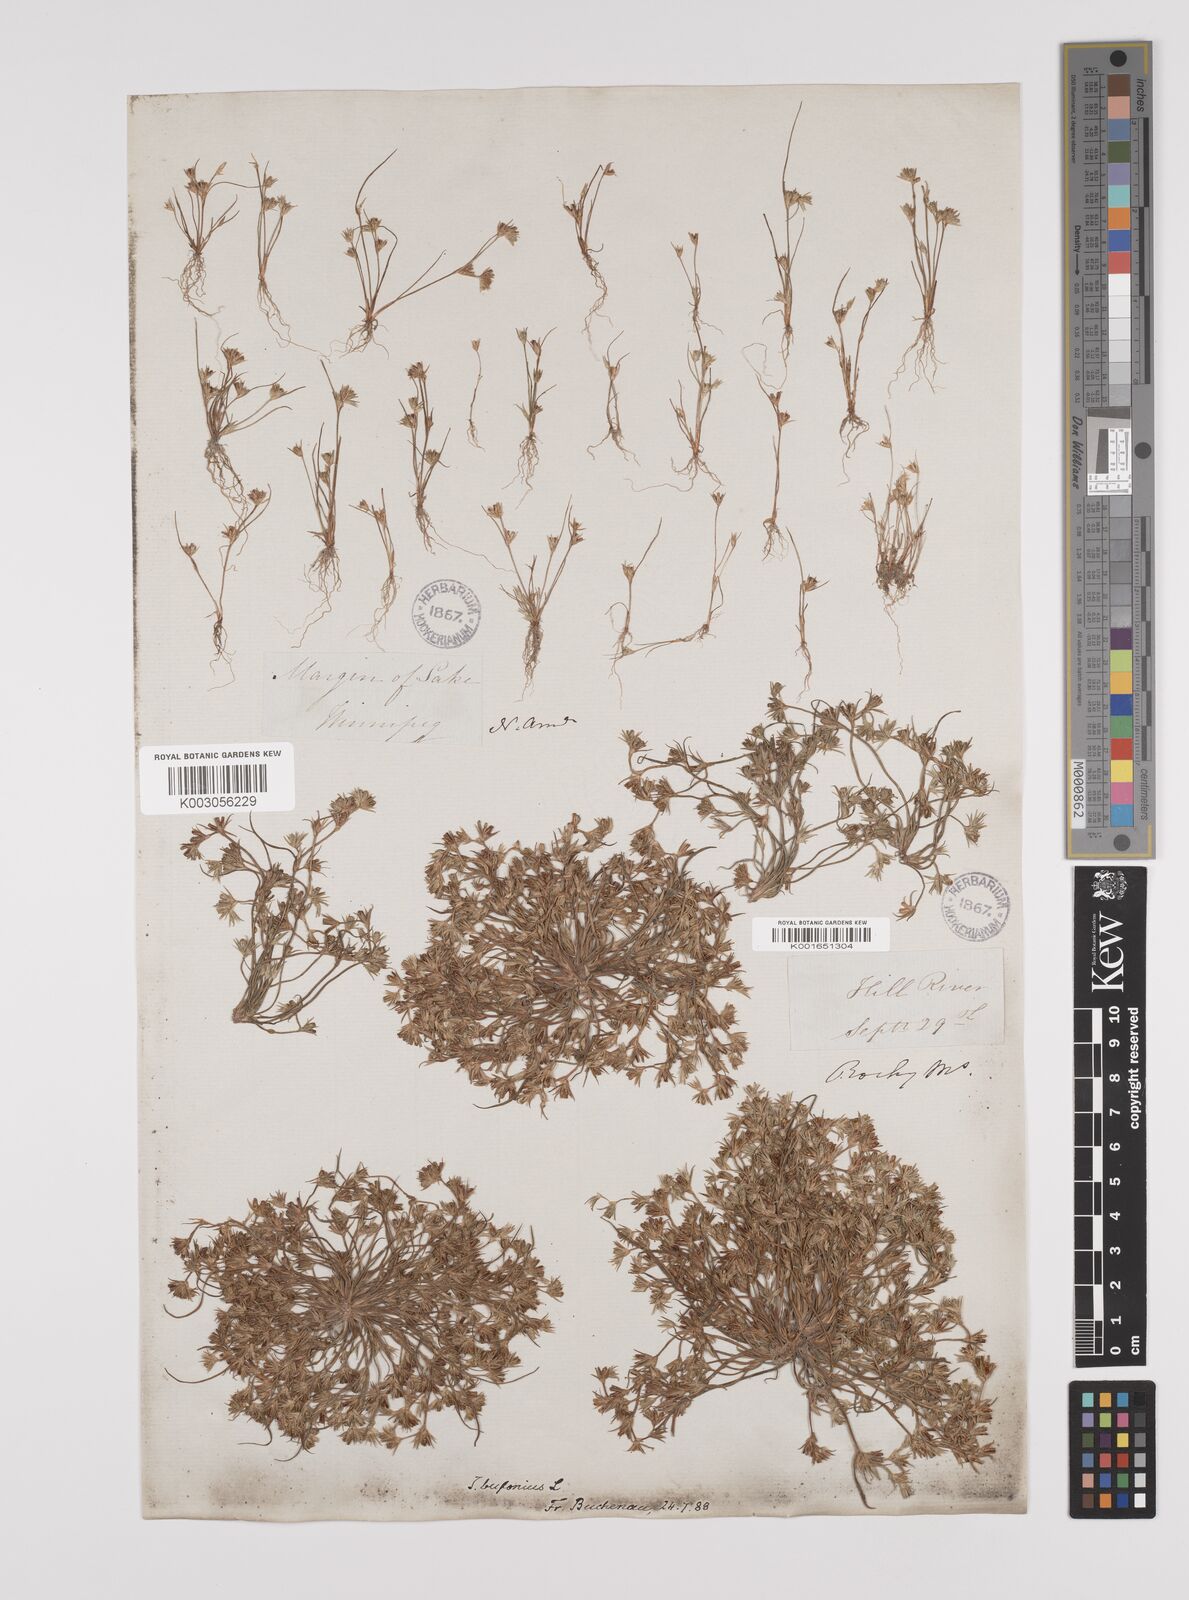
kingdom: Plantae
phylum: Tracheophyta
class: Liliopsida
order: Poales
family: Juncaceae
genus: Juncus
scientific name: Juncus bufonius
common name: Toad rush
